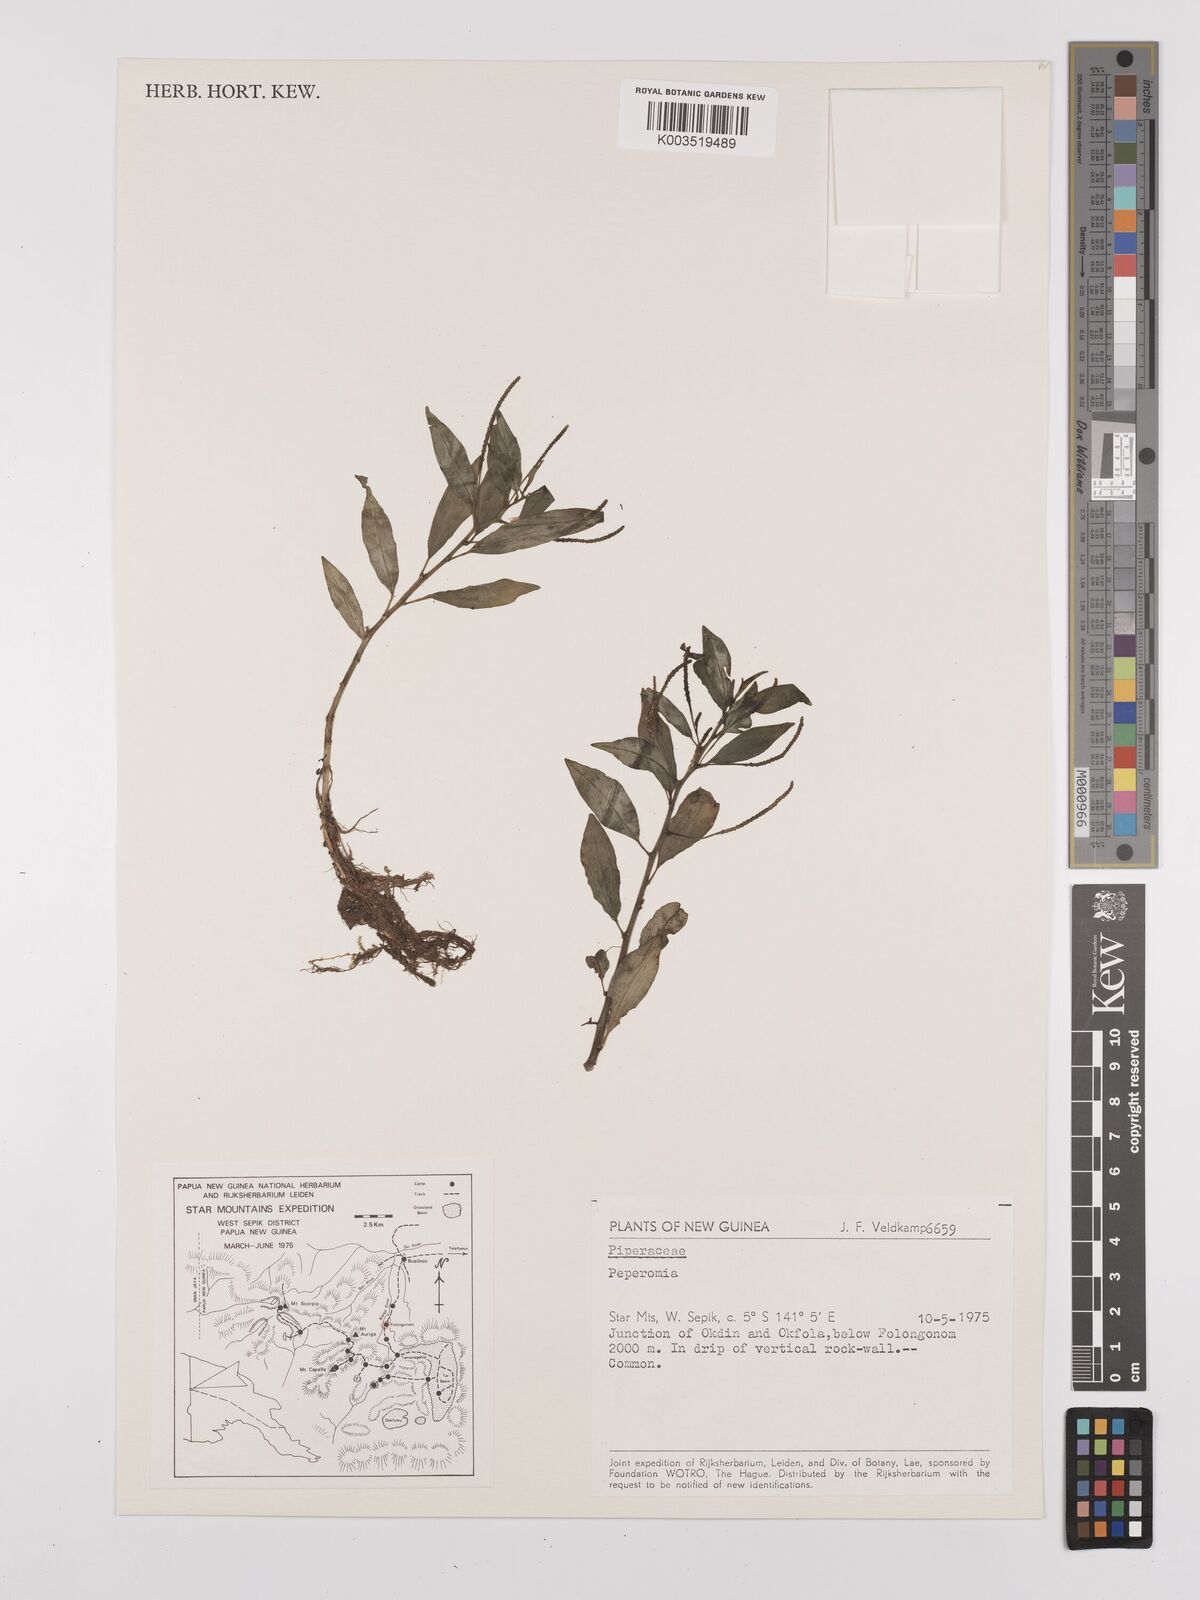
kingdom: Plantae
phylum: Tracheophyta
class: Magnoliopsida
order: Piperales
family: Piperaceae
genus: Peperomia
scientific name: Peperomia
